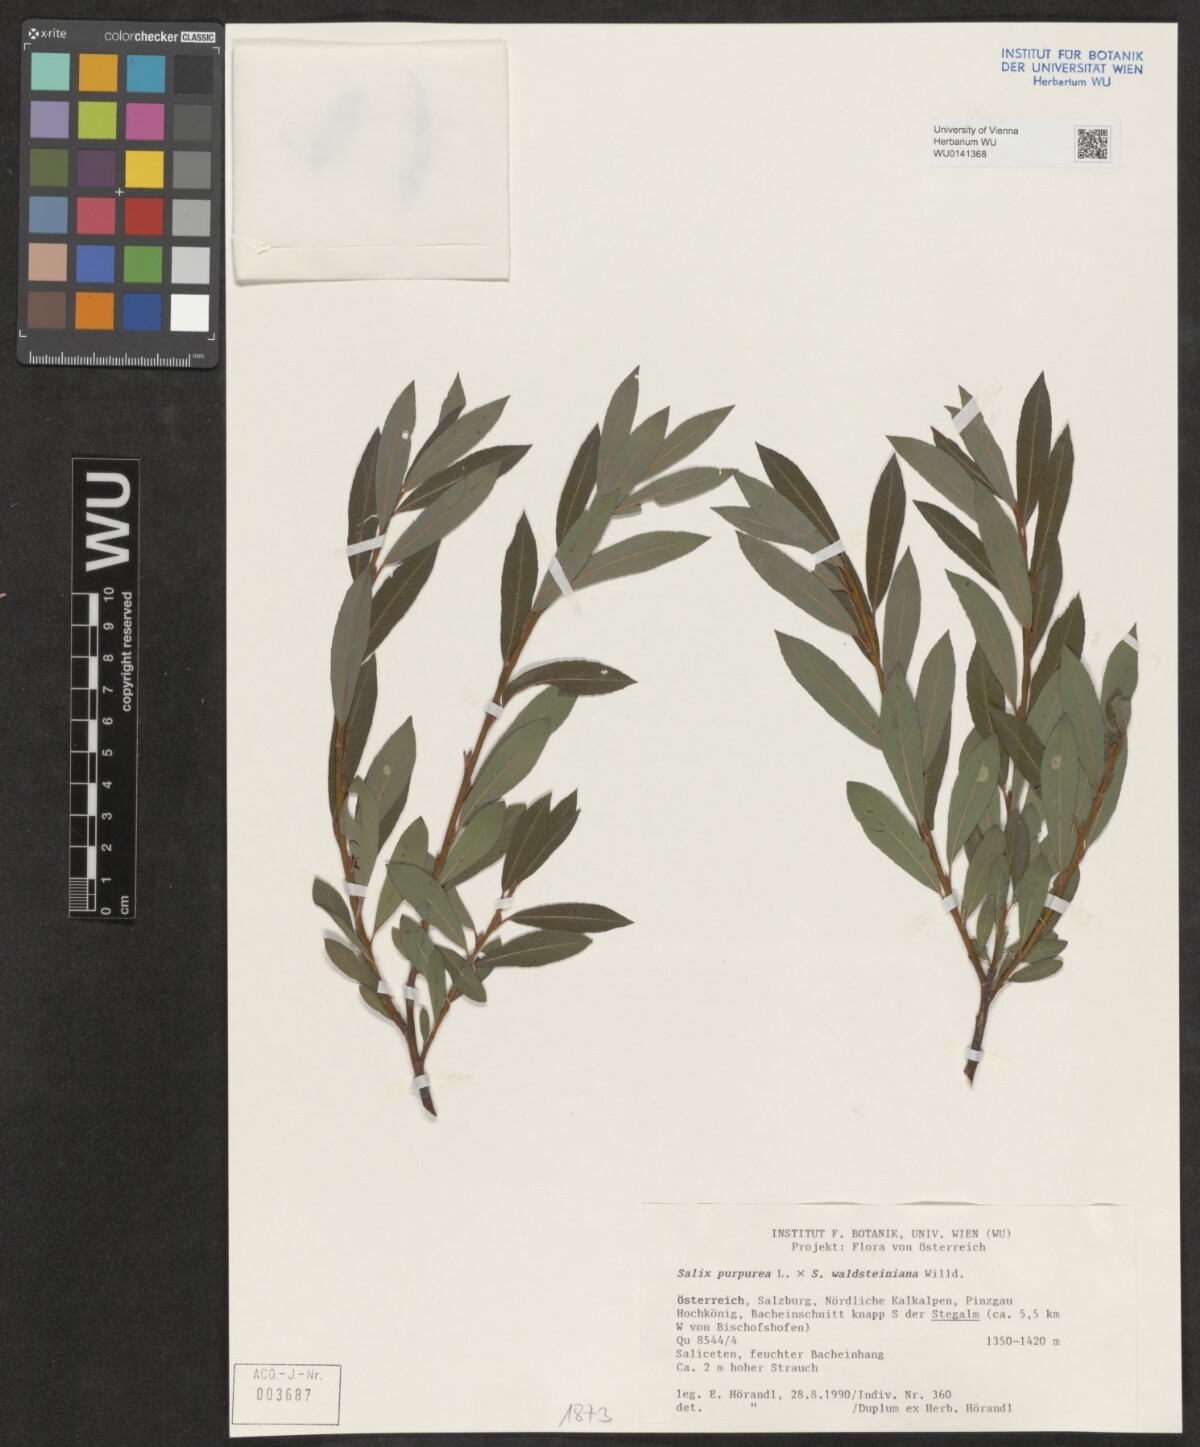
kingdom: Plantae
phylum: Tracheophyta
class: Magnoliopsida
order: Malpighiales
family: Salicaceae
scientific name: Salicaceae
